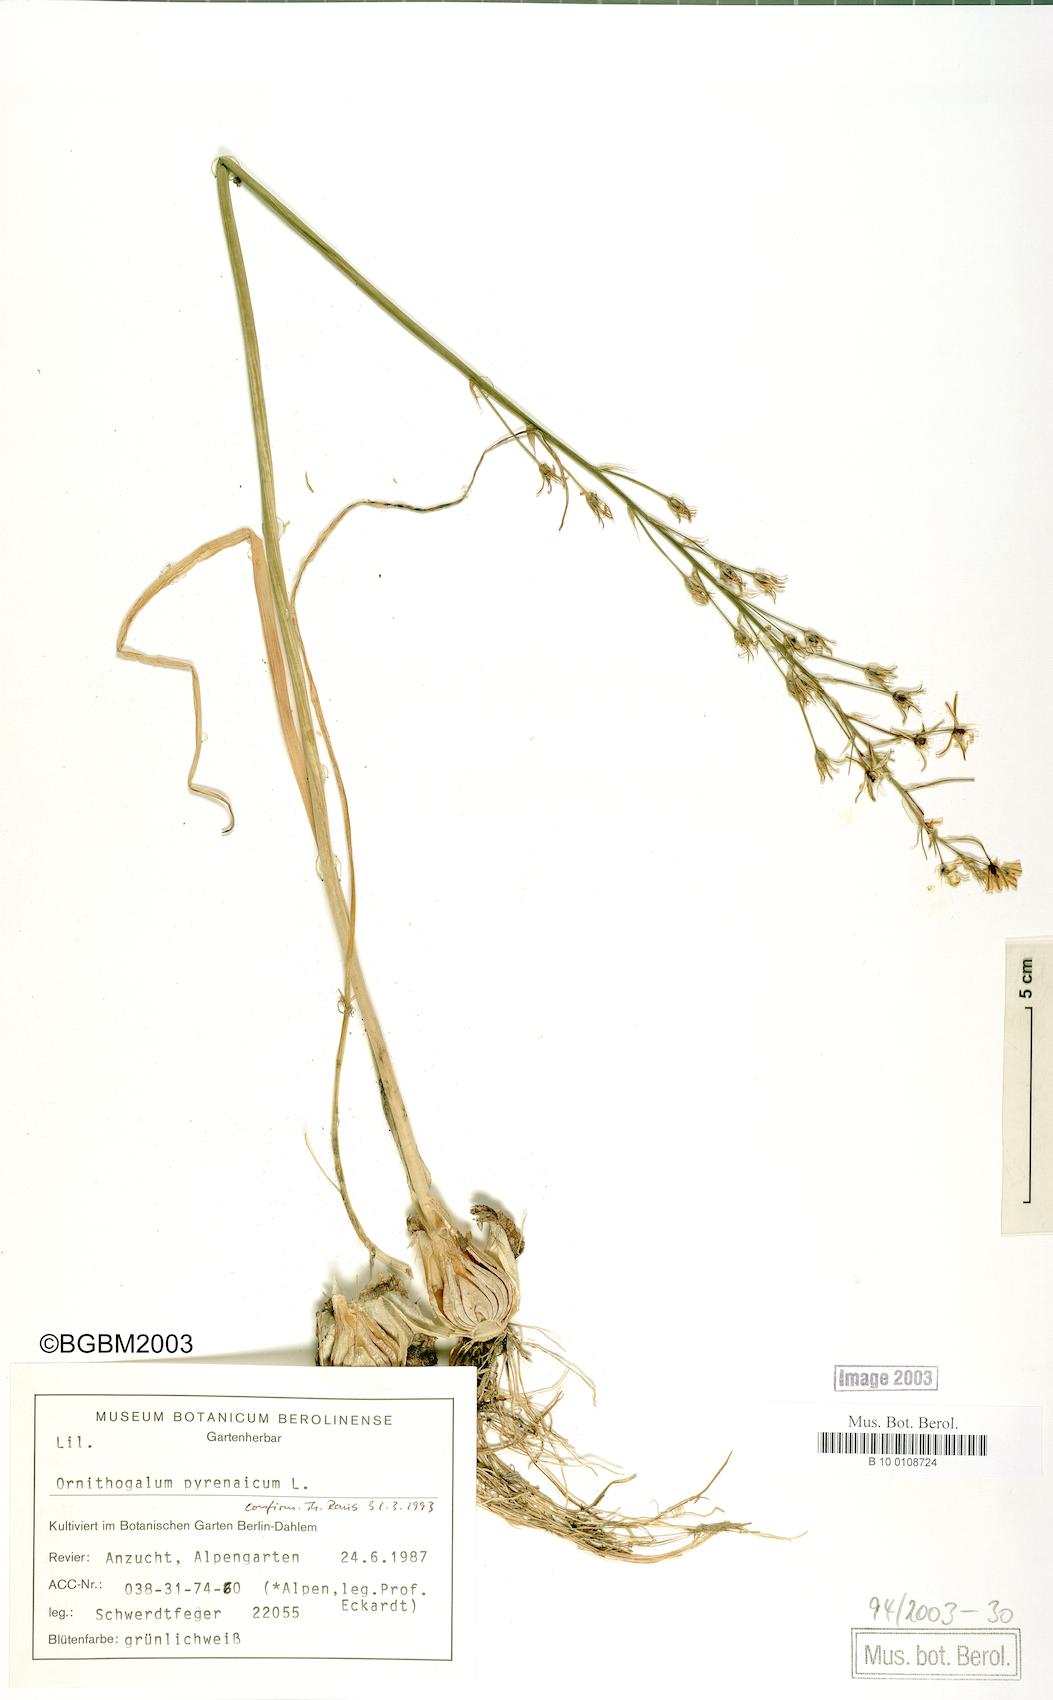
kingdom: Plantae
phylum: Tracheophyta
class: Liliopsida
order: Asparagales
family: Asparagaceae
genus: Ornithogalum
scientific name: Ornithogalum pyrenaicum
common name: Spiked star-of-bethlehem
